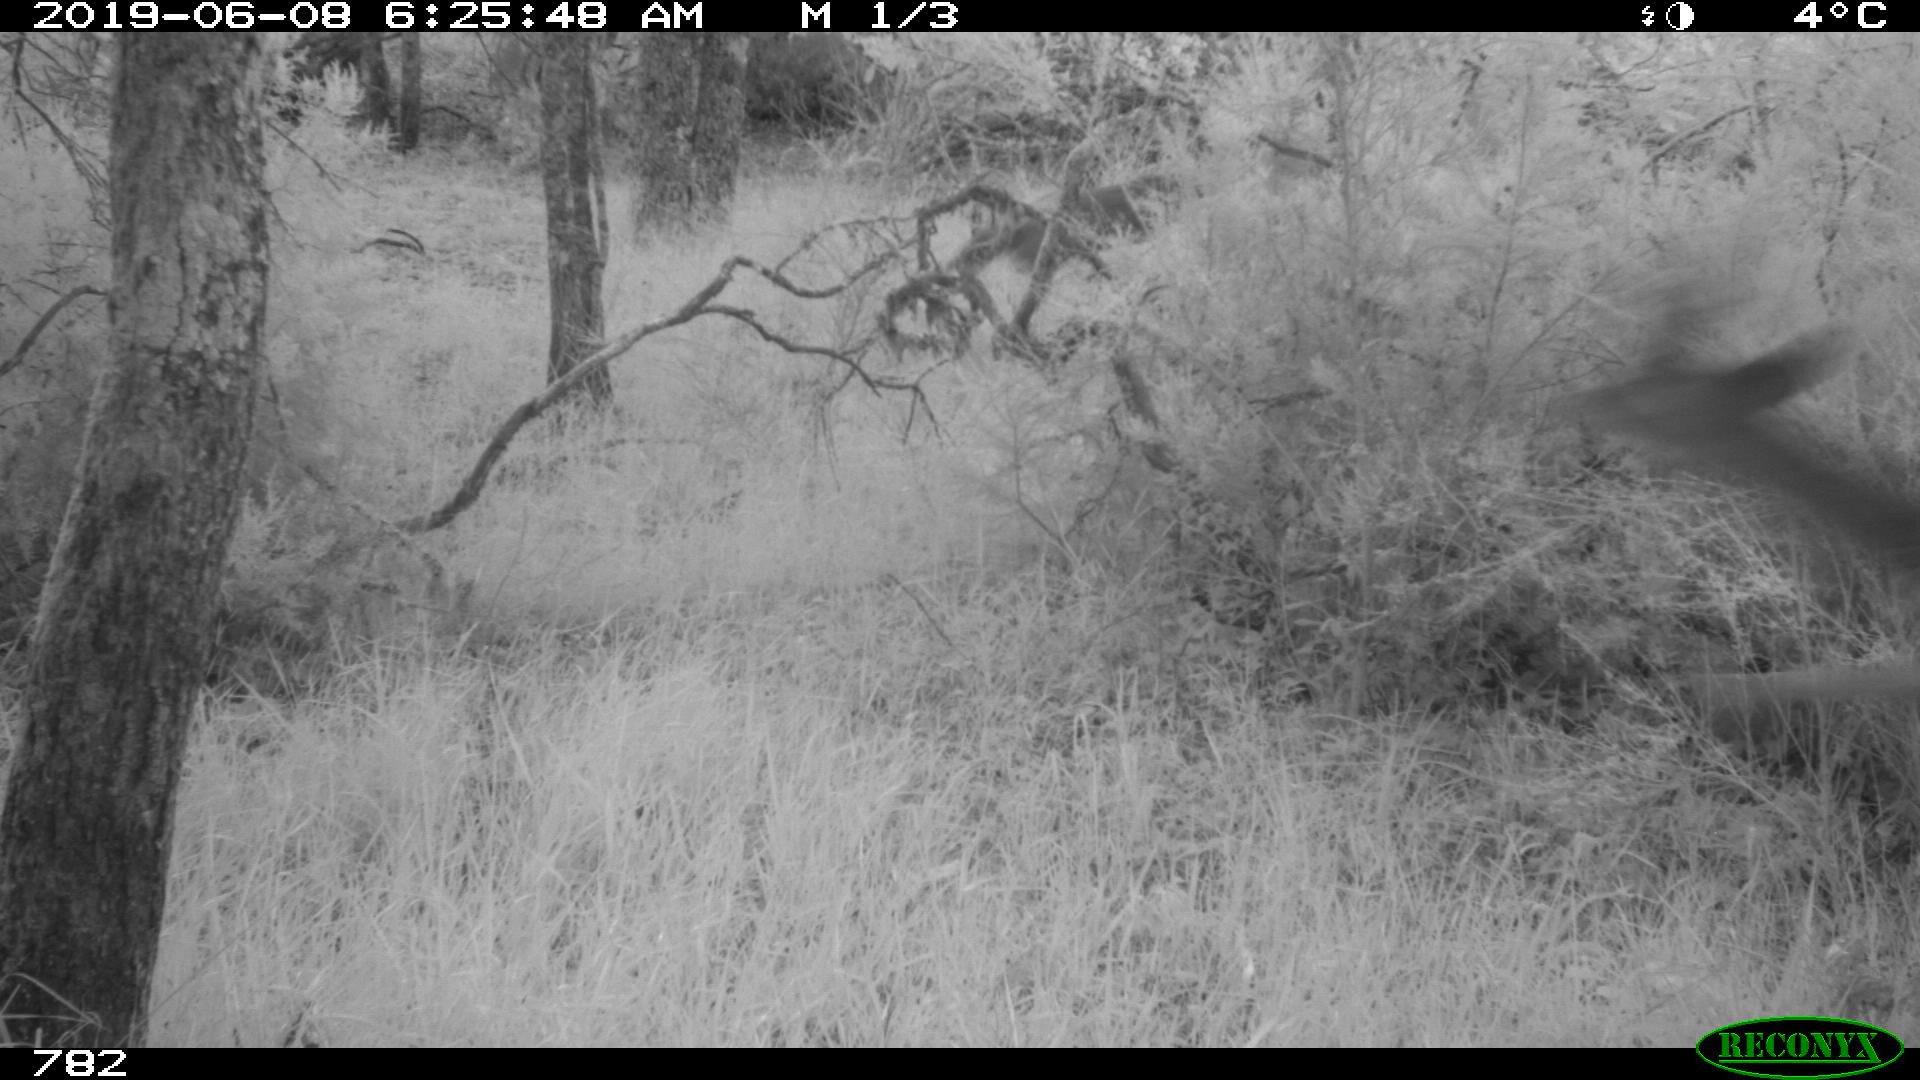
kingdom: Animalia
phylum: Chordata
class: Mammalia
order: Artiodactyla
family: Cervidae
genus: Capreolus
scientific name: Capreolus capreolus
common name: Western roe deer
